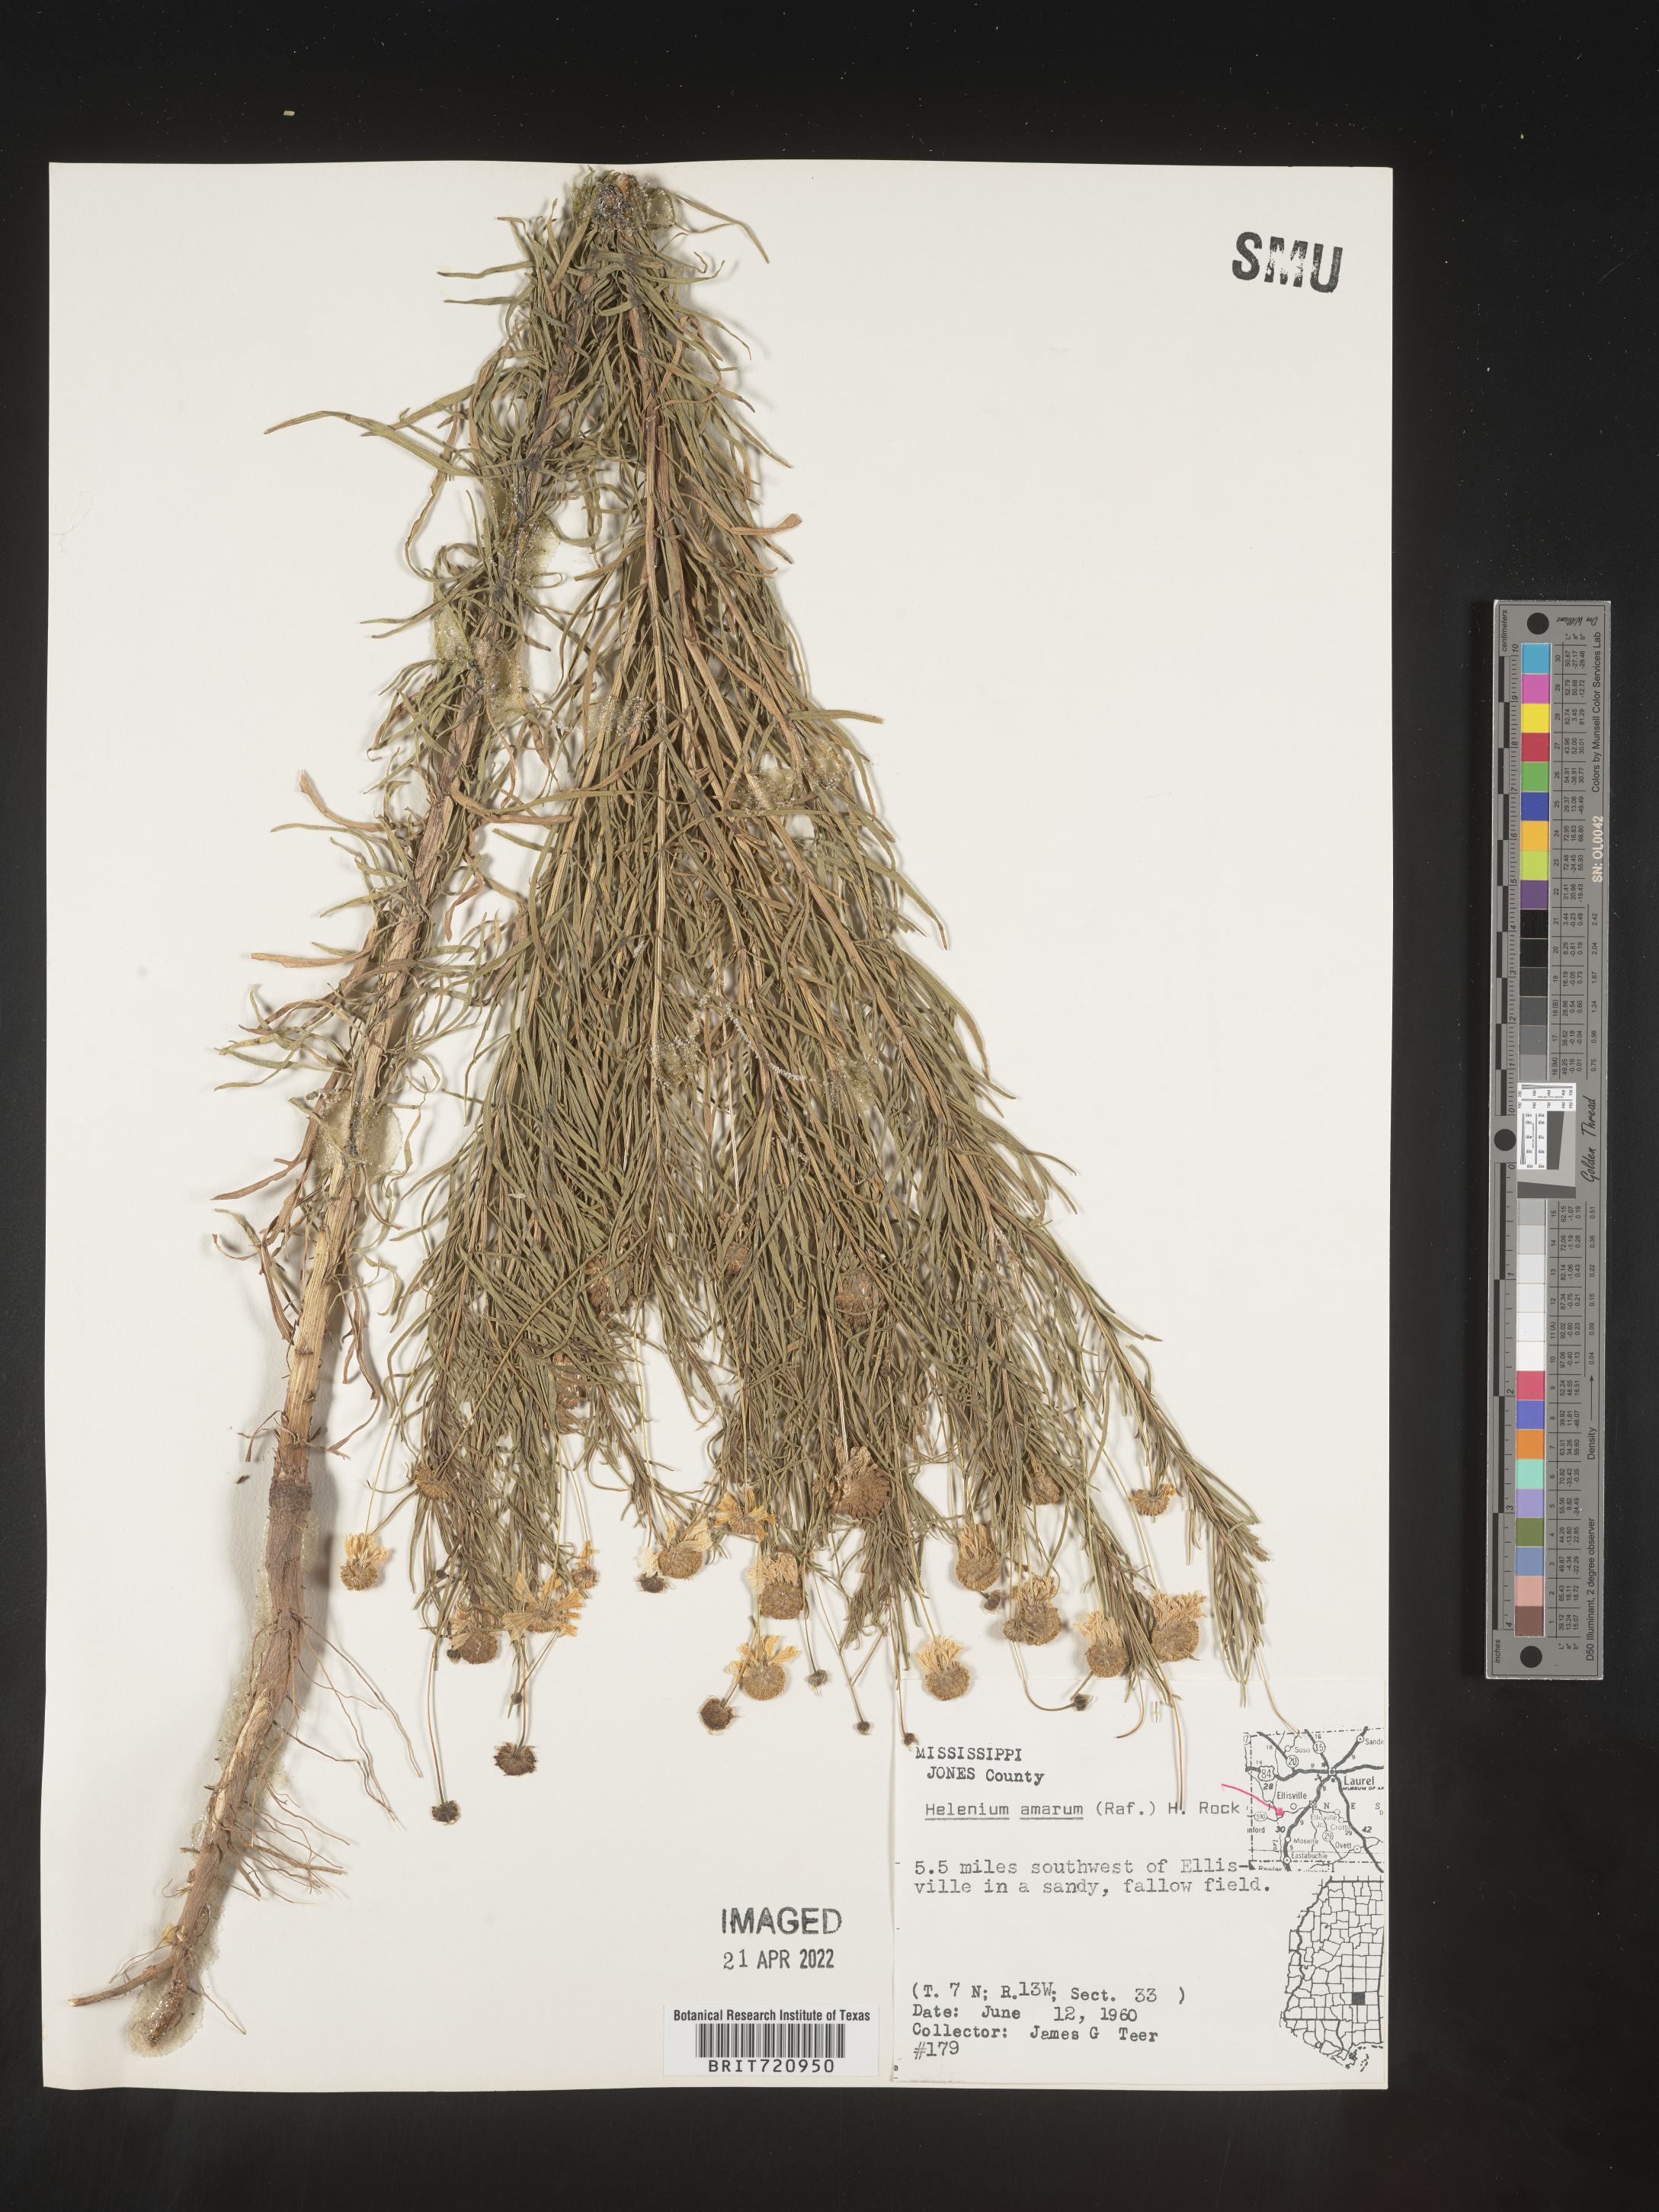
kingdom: Plantae
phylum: Tracheophyta
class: Magnoliopsida
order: Asterales
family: Asteraceae
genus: Helenium
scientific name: Helenium amarum
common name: Bitter sneezeweed
